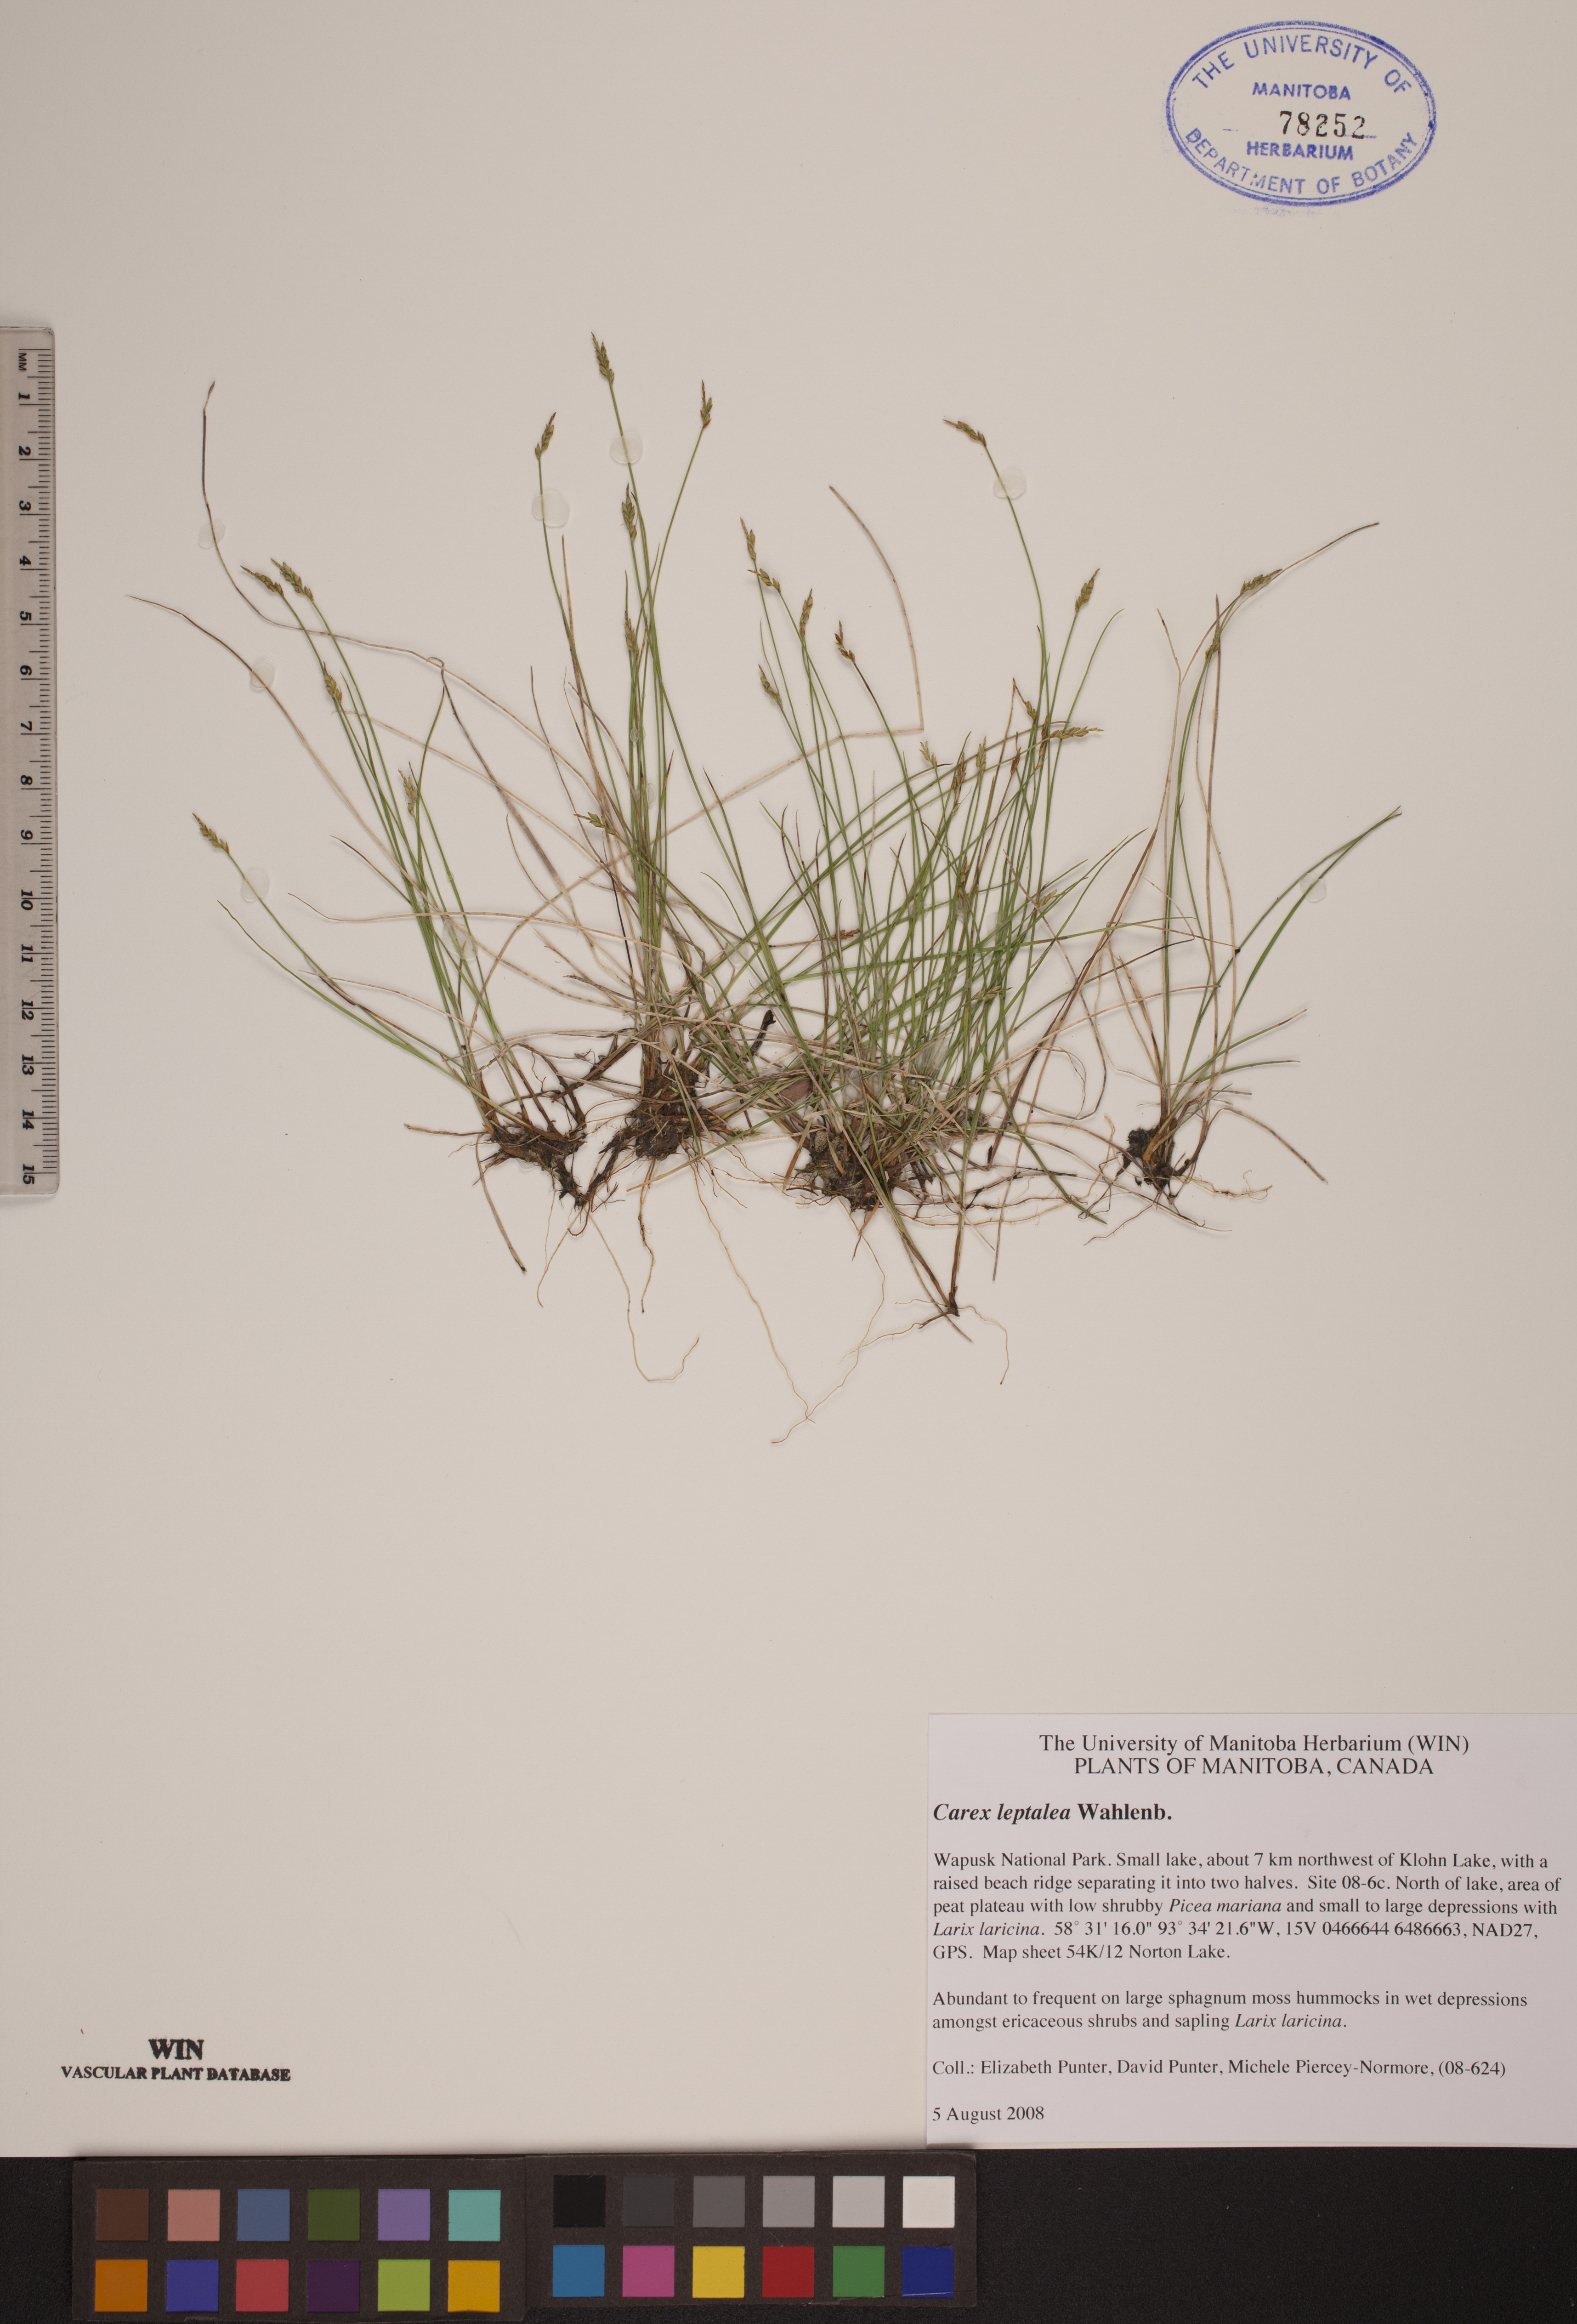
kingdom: Plantae
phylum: Tracheophyta
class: Liliopsida
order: Poales
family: Cyperaceae
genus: Carex
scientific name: Carex leptalea
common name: Bristly-stalked sedge
